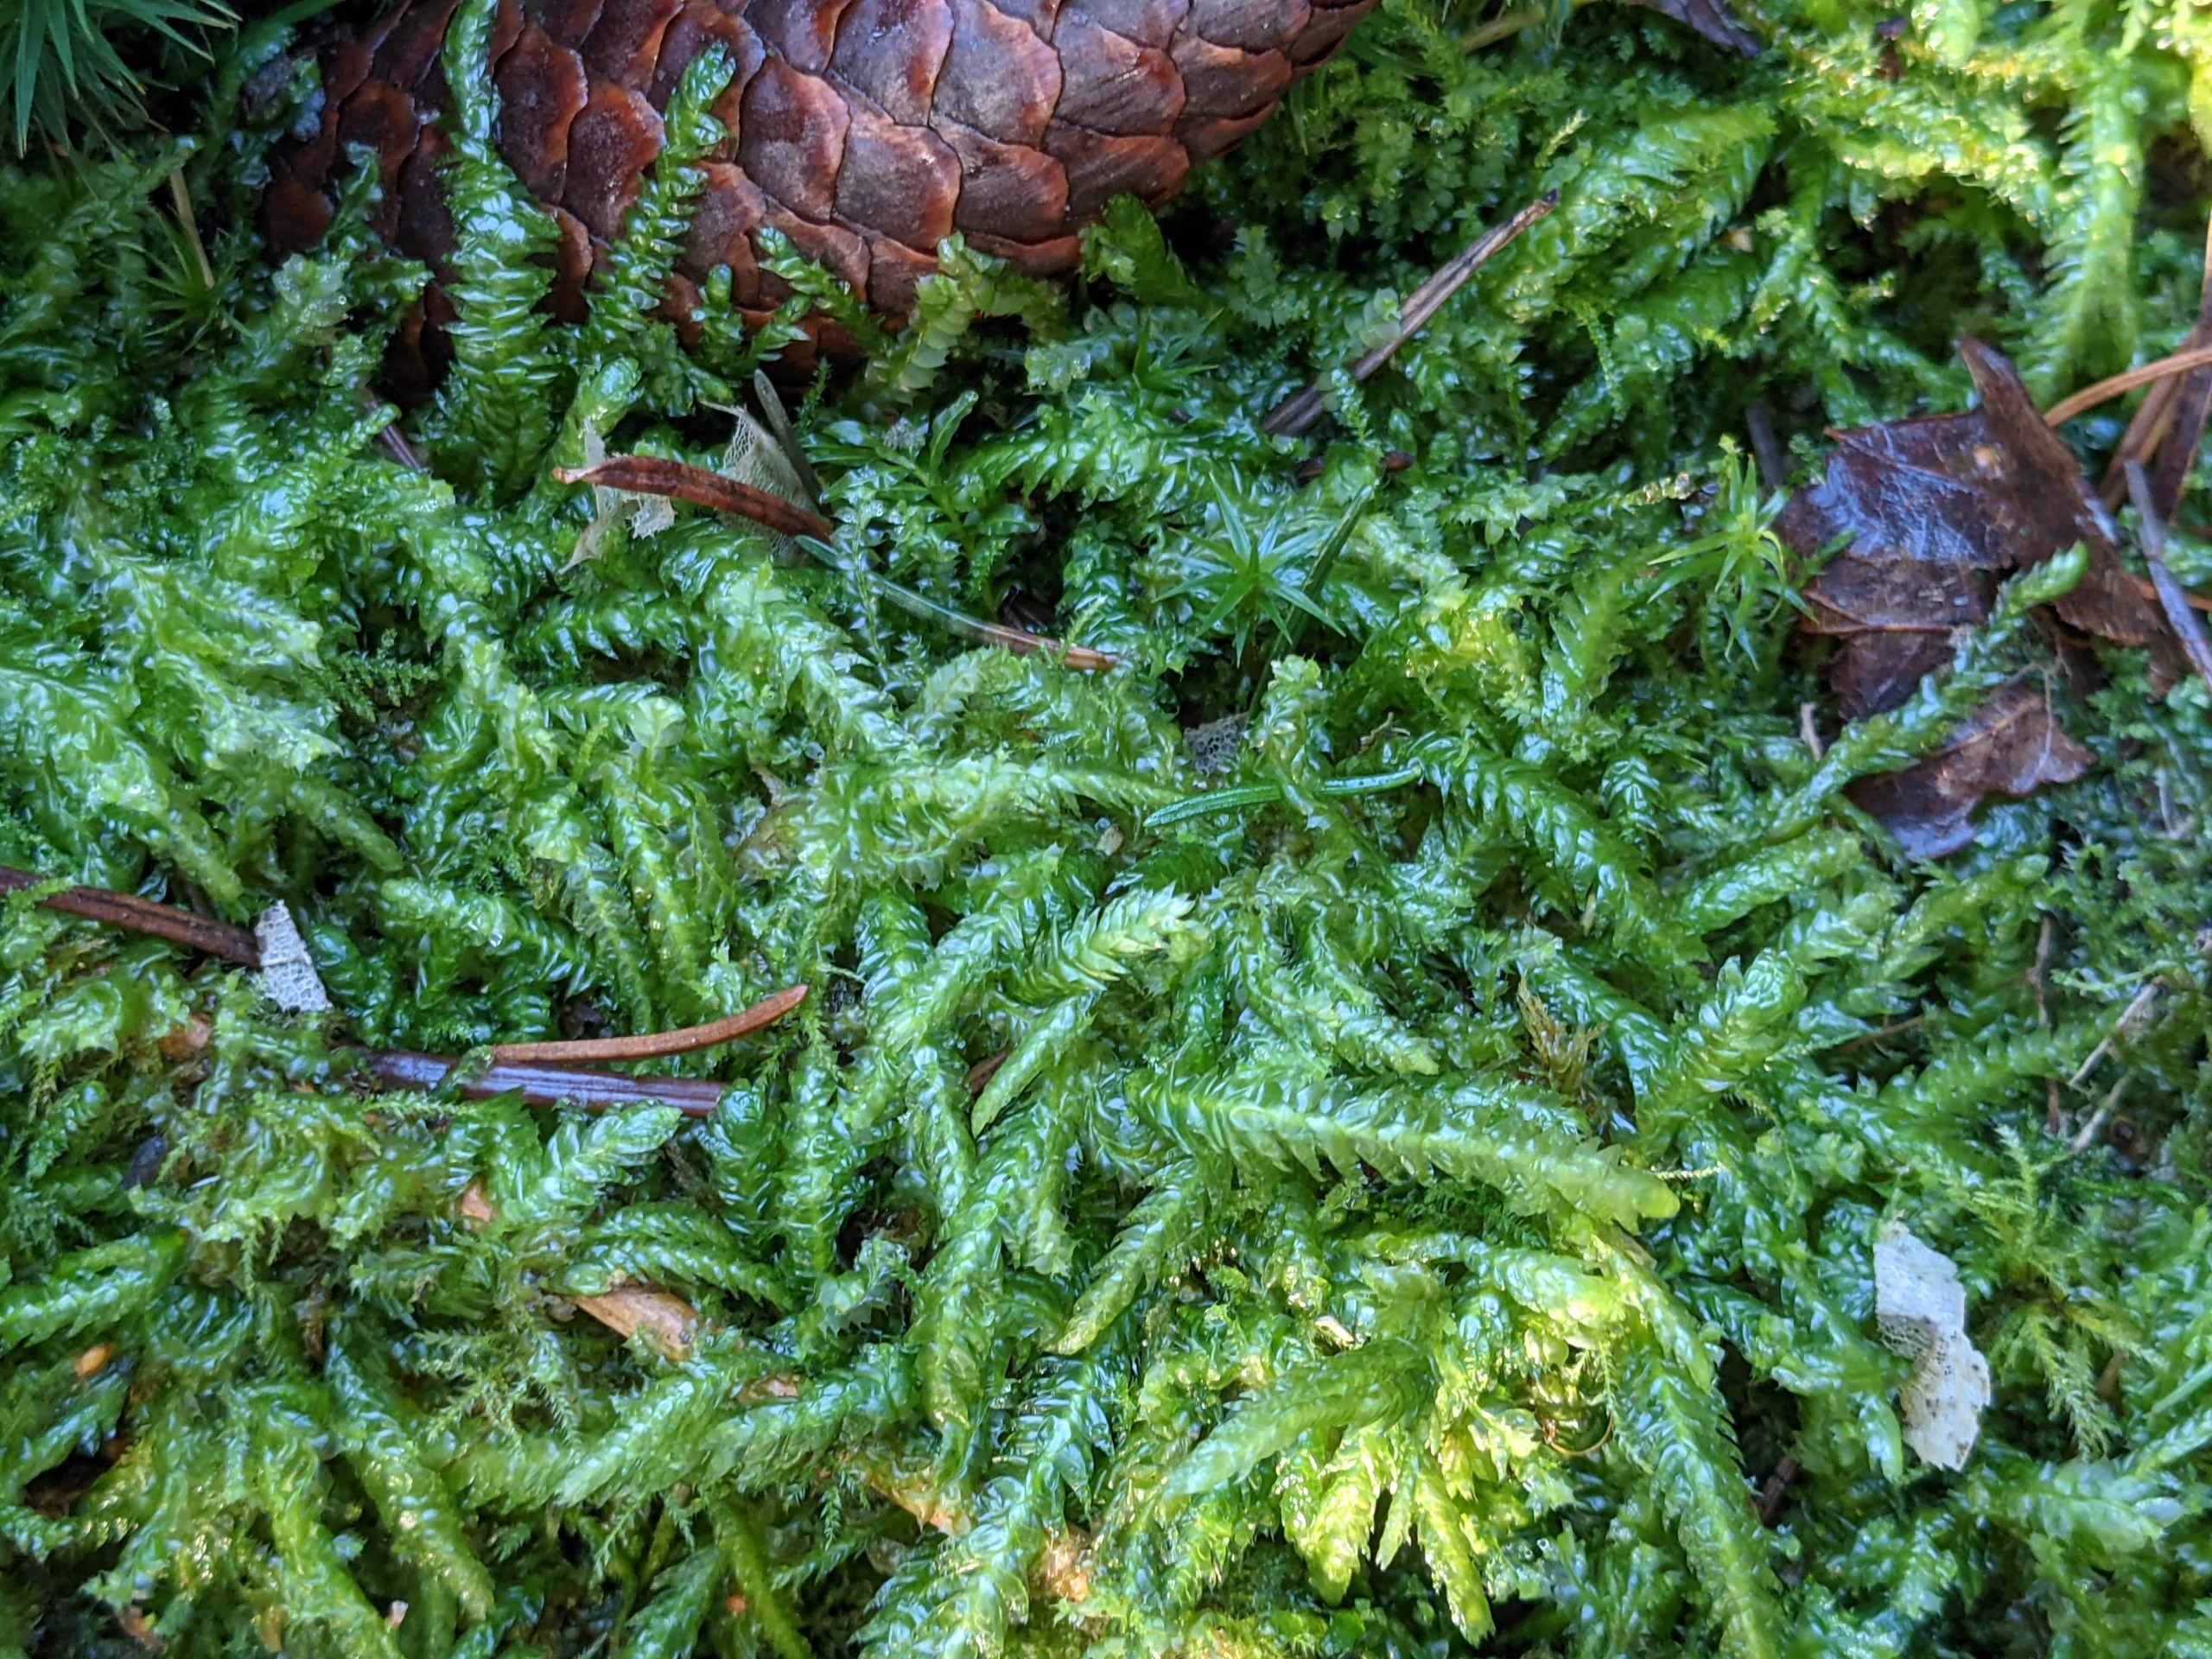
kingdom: Plantae
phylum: Bryophyta
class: Bryopsida
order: Hypnales
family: Plagiotheciaceae
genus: Plagiothecium
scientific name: Plagiothecium undulatum
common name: Bølget tæppemos
